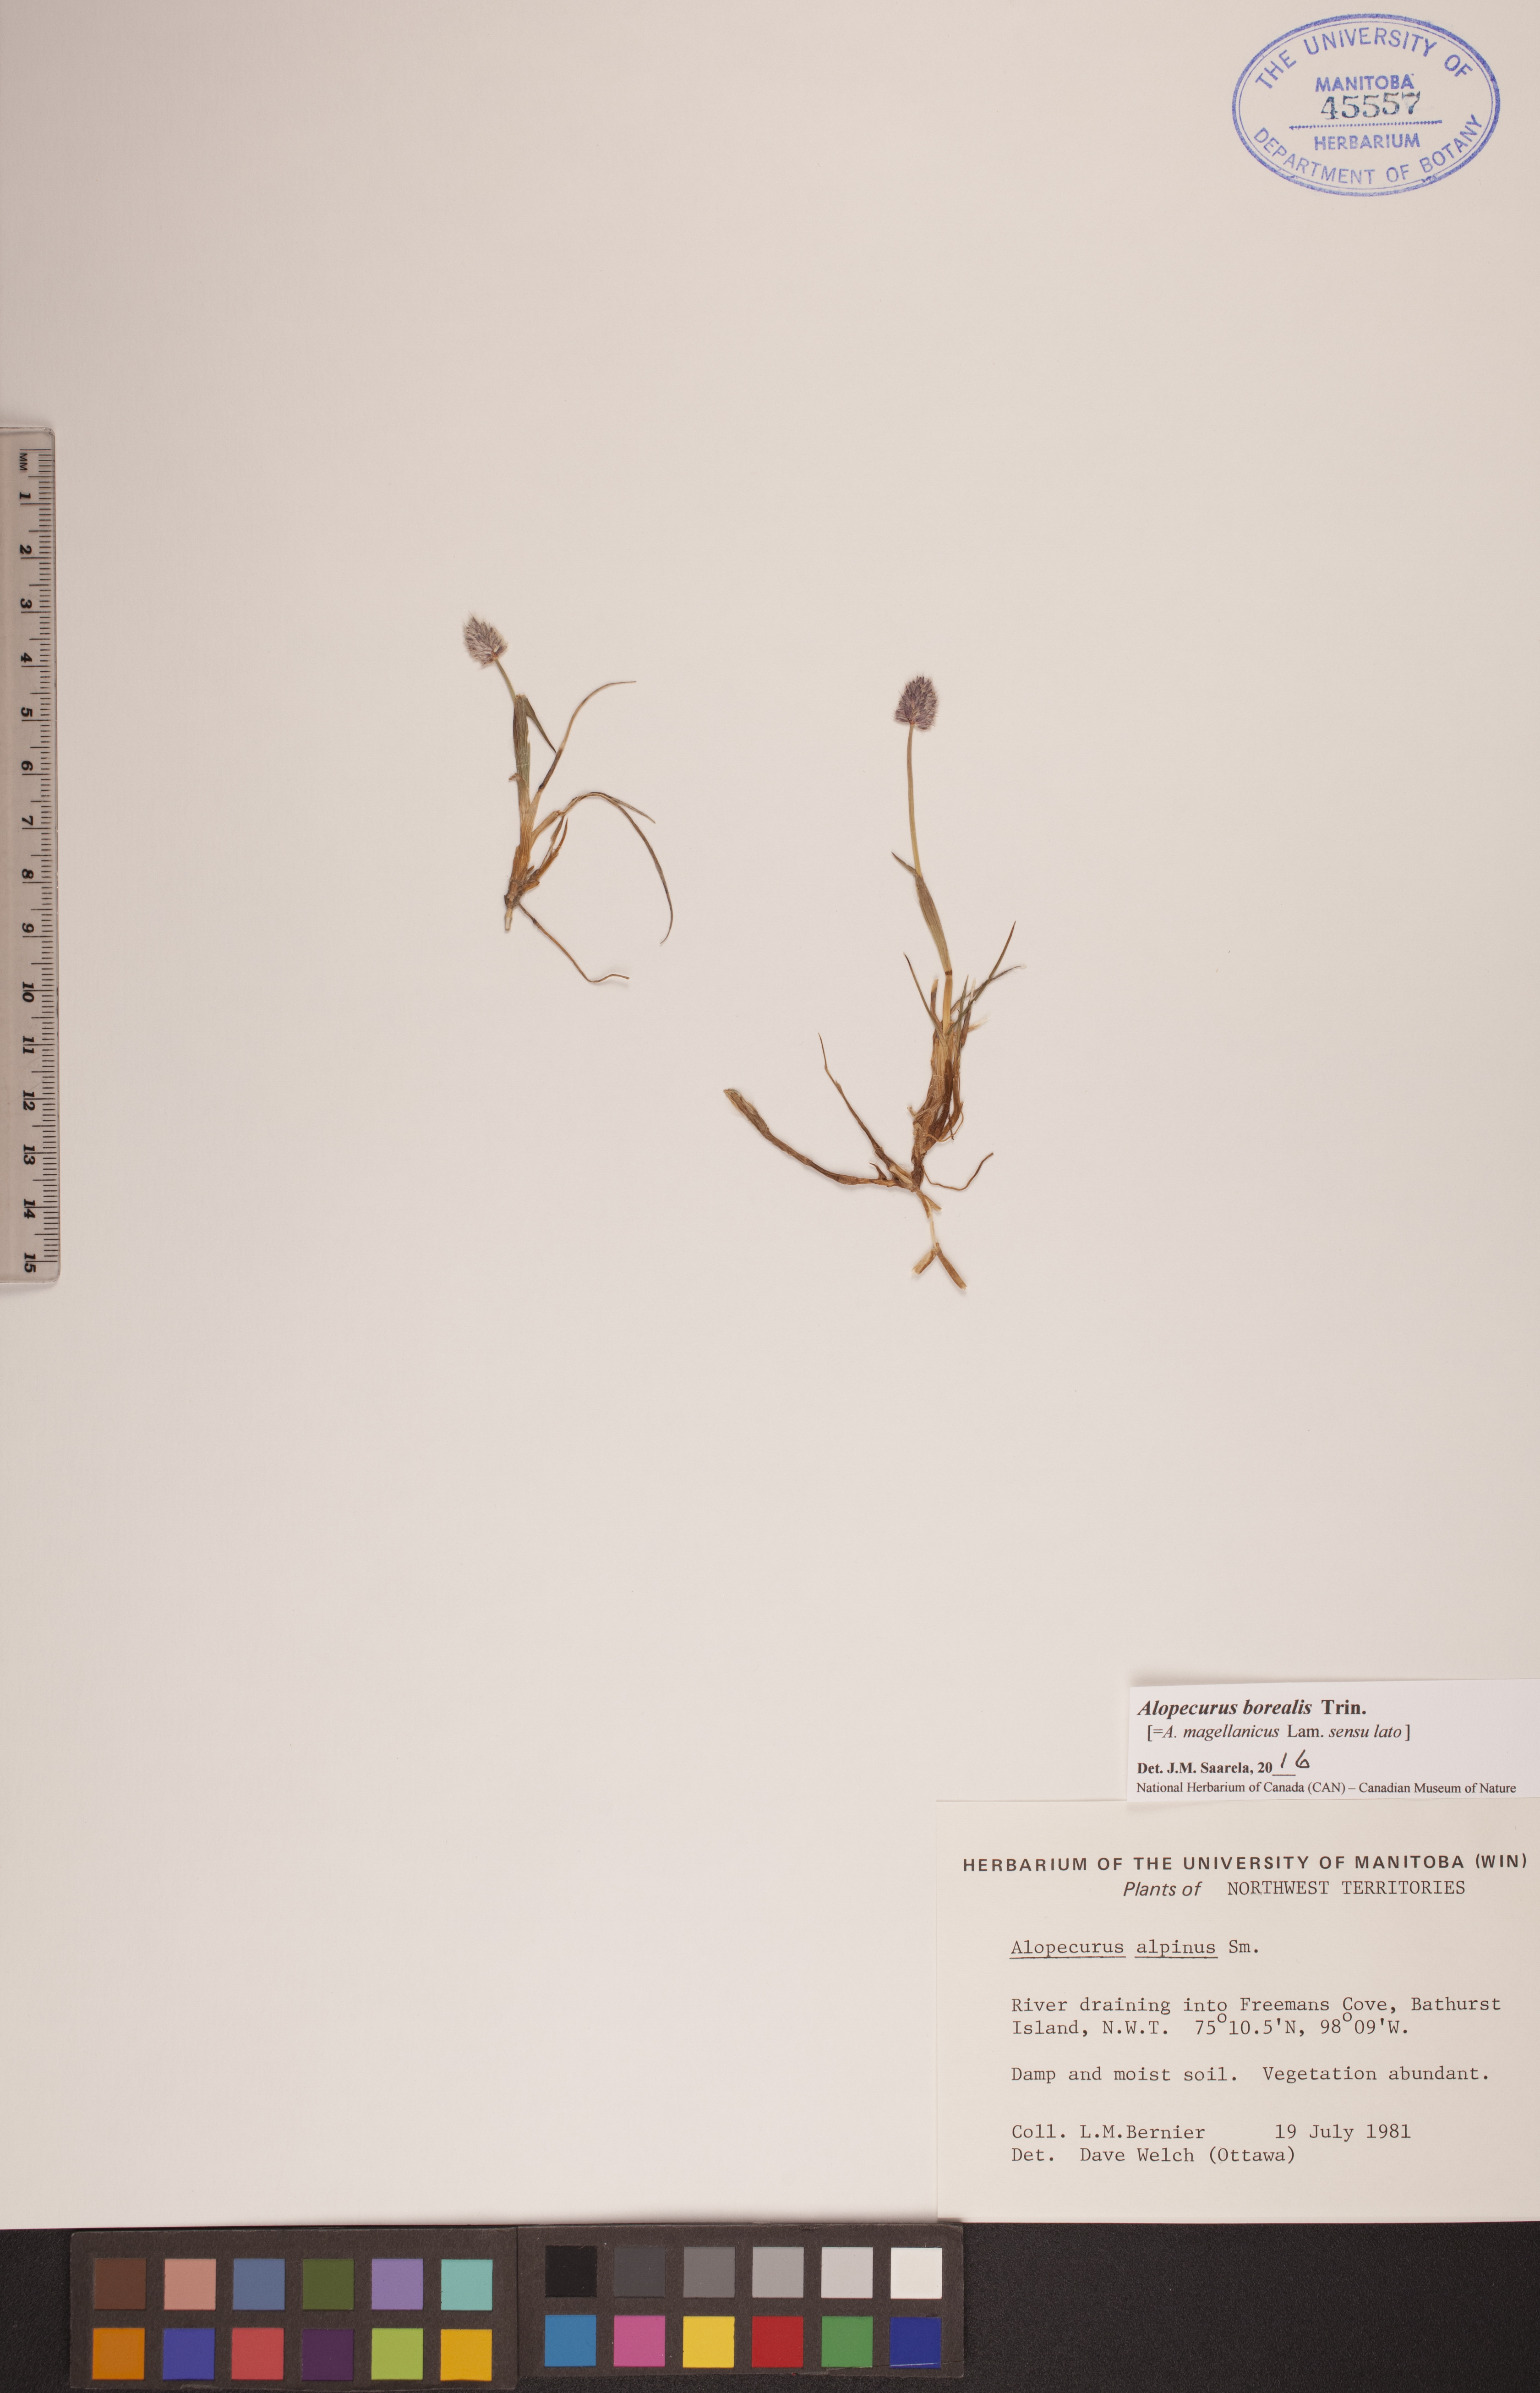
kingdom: Plantae
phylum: Tracheophyta
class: Liliopsida
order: Poales
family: Poaceae
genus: Alopecurus
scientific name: Alopecurus magellanicus
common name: Alpine foxtail
